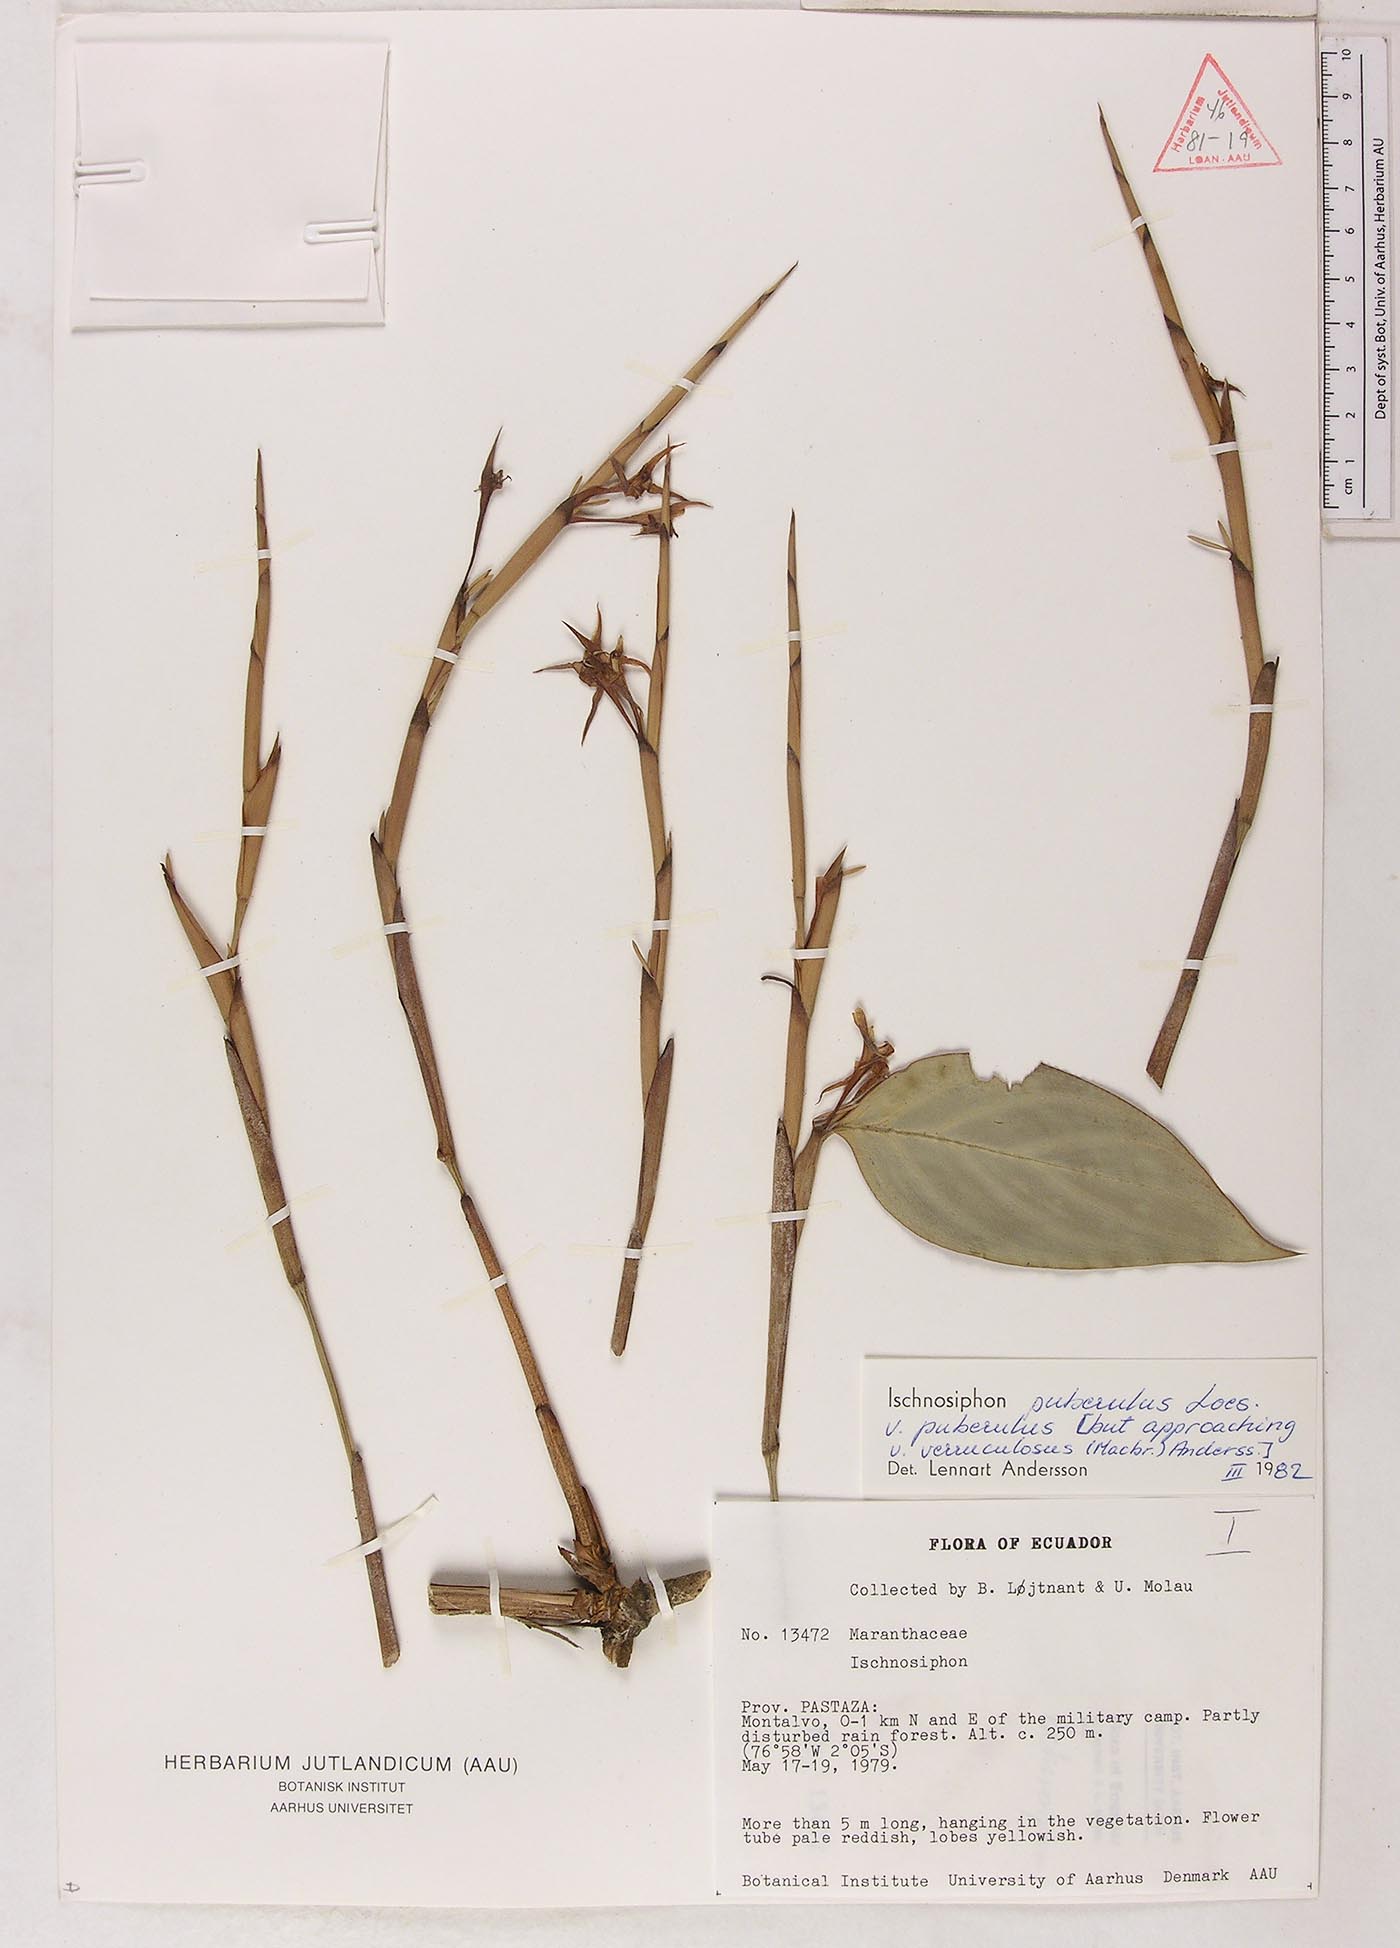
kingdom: Plantae
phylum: Tracheophyta
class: Liliopsida
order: Zingiberales
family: Marantaceae
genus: Ischnosiphon
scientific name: Ischnosiphon puberulus
